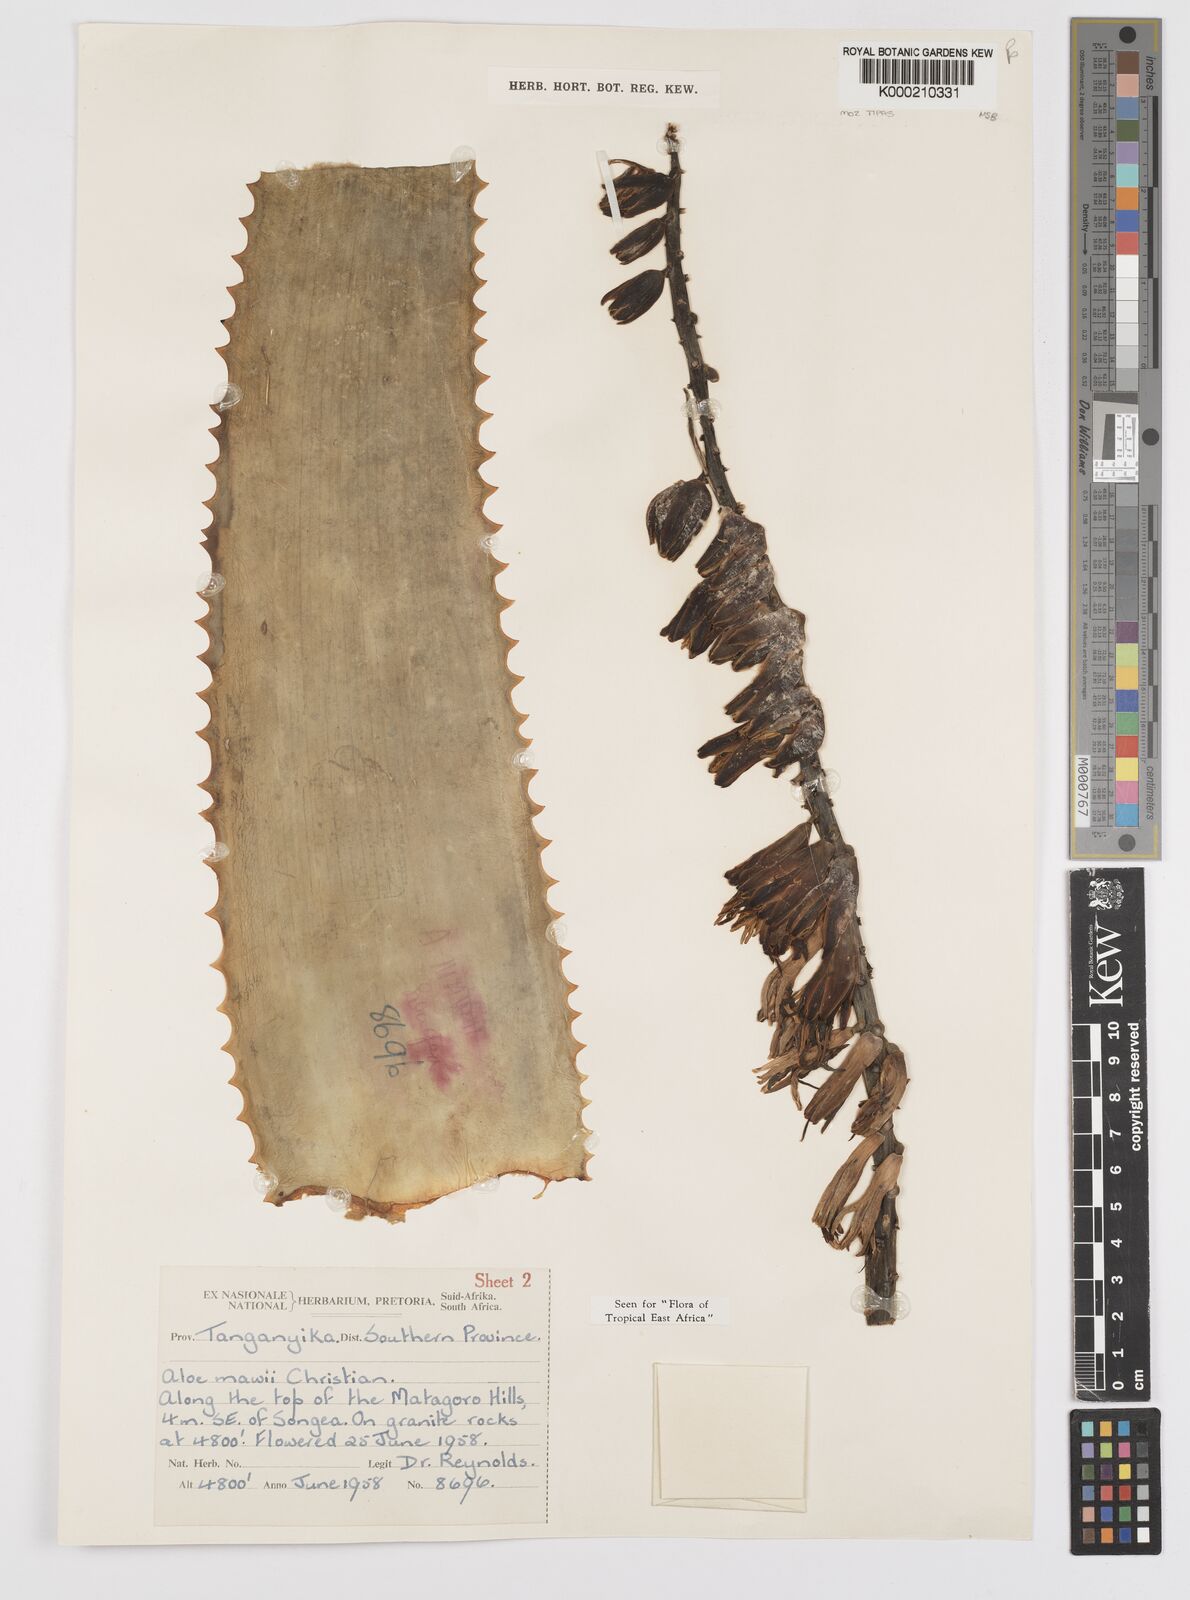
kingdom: Plantae
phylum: Tracheophyta
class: Liliopsida
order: Asparagales
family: Asphodelaceae
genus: Aloe
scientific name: Aloe mawii
